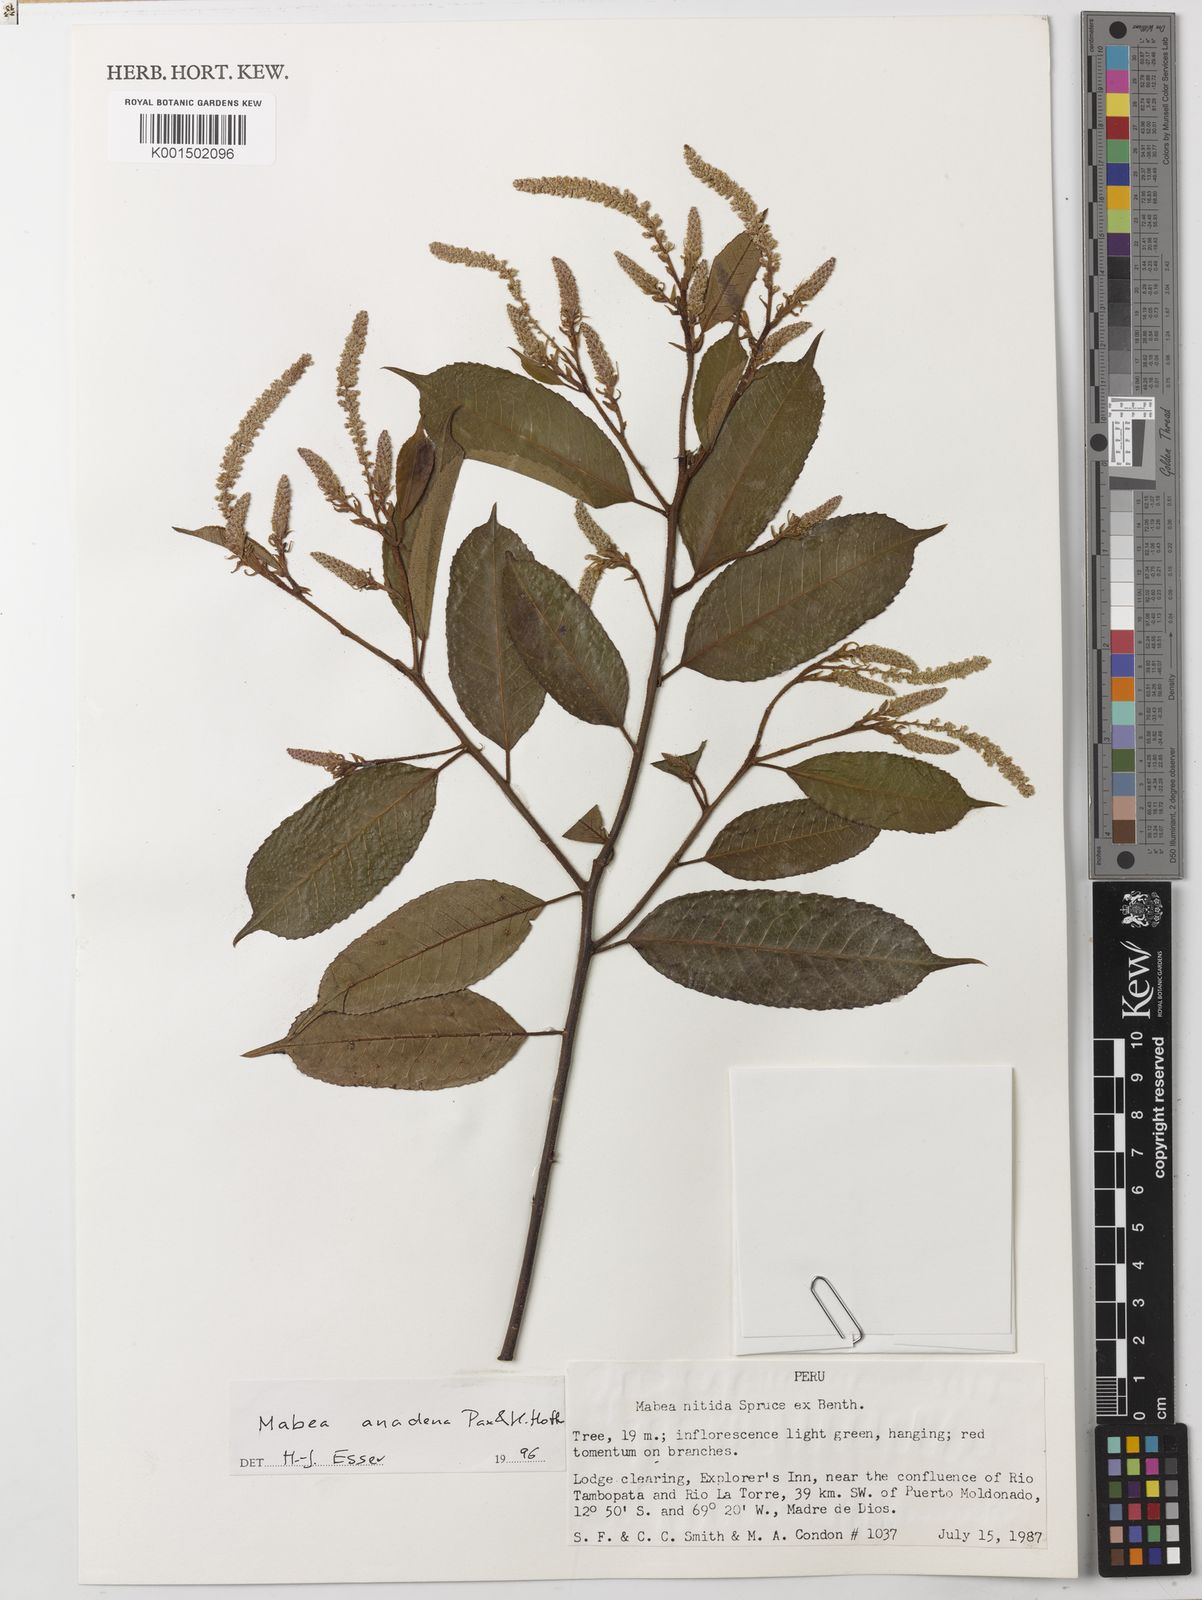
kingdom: Plantae
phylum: Tracheophyta
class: Magnoliopsida
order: Malpighiales
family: Euphorbiaceae
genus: Mabea
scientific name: Mabea anadena
